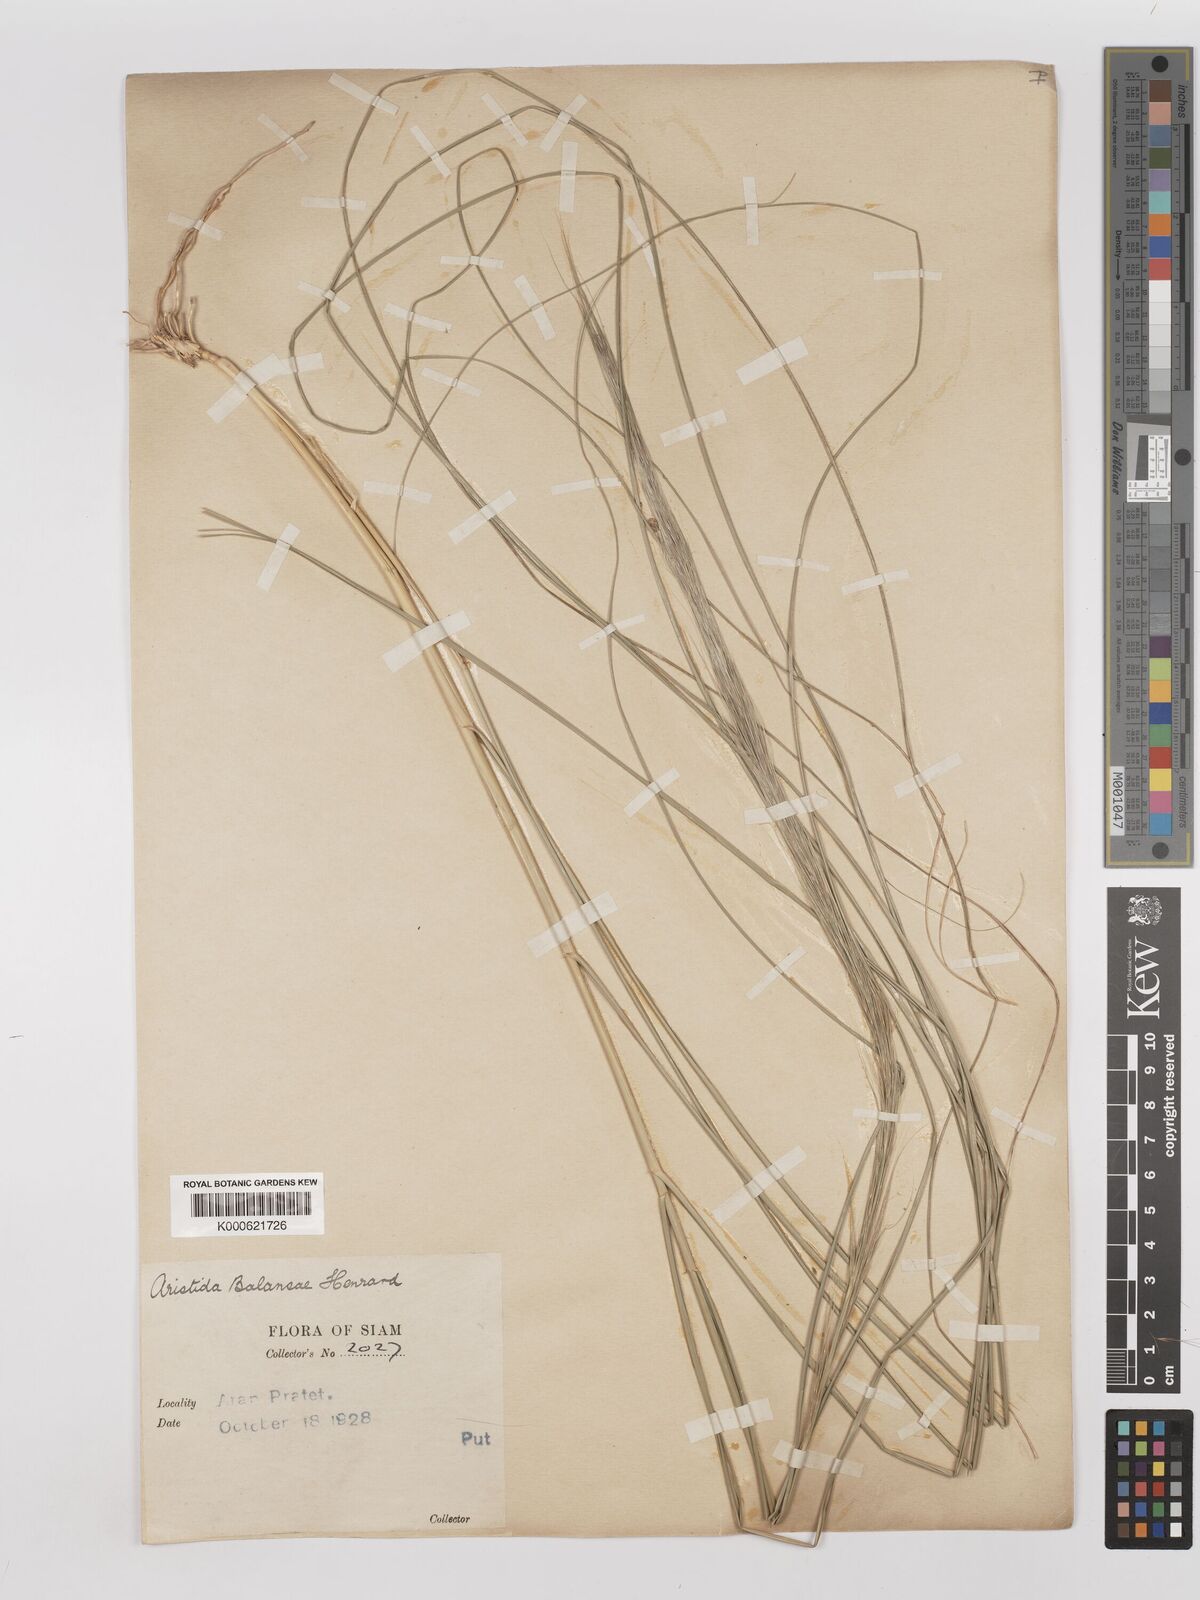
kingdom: Plantae
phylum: Tracheophyta
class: Liliopsida
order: Poales
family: Poaceae
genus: Aristida
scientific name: Aristida balansae
